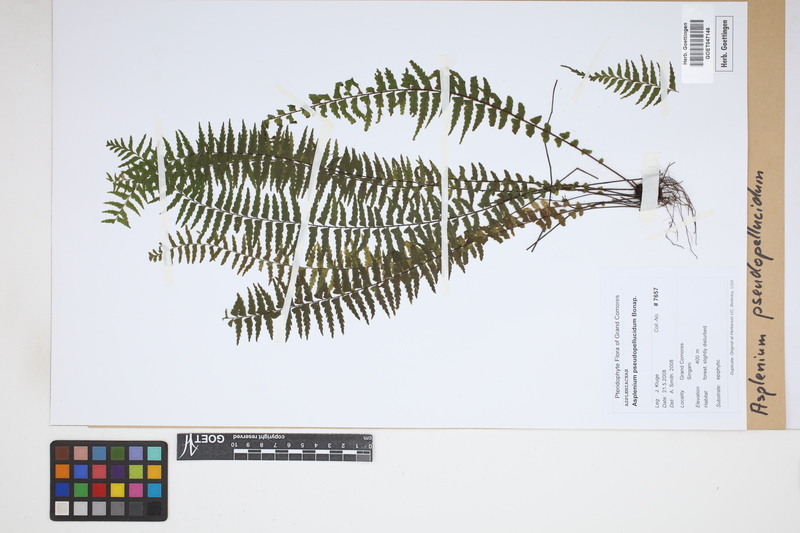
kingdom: Plantae
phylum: Tracheophyta
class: Polypodiopsida
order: Polypodiales
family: Aspleniaceae
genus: Asplenium
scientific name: Asplenium crinulosum
